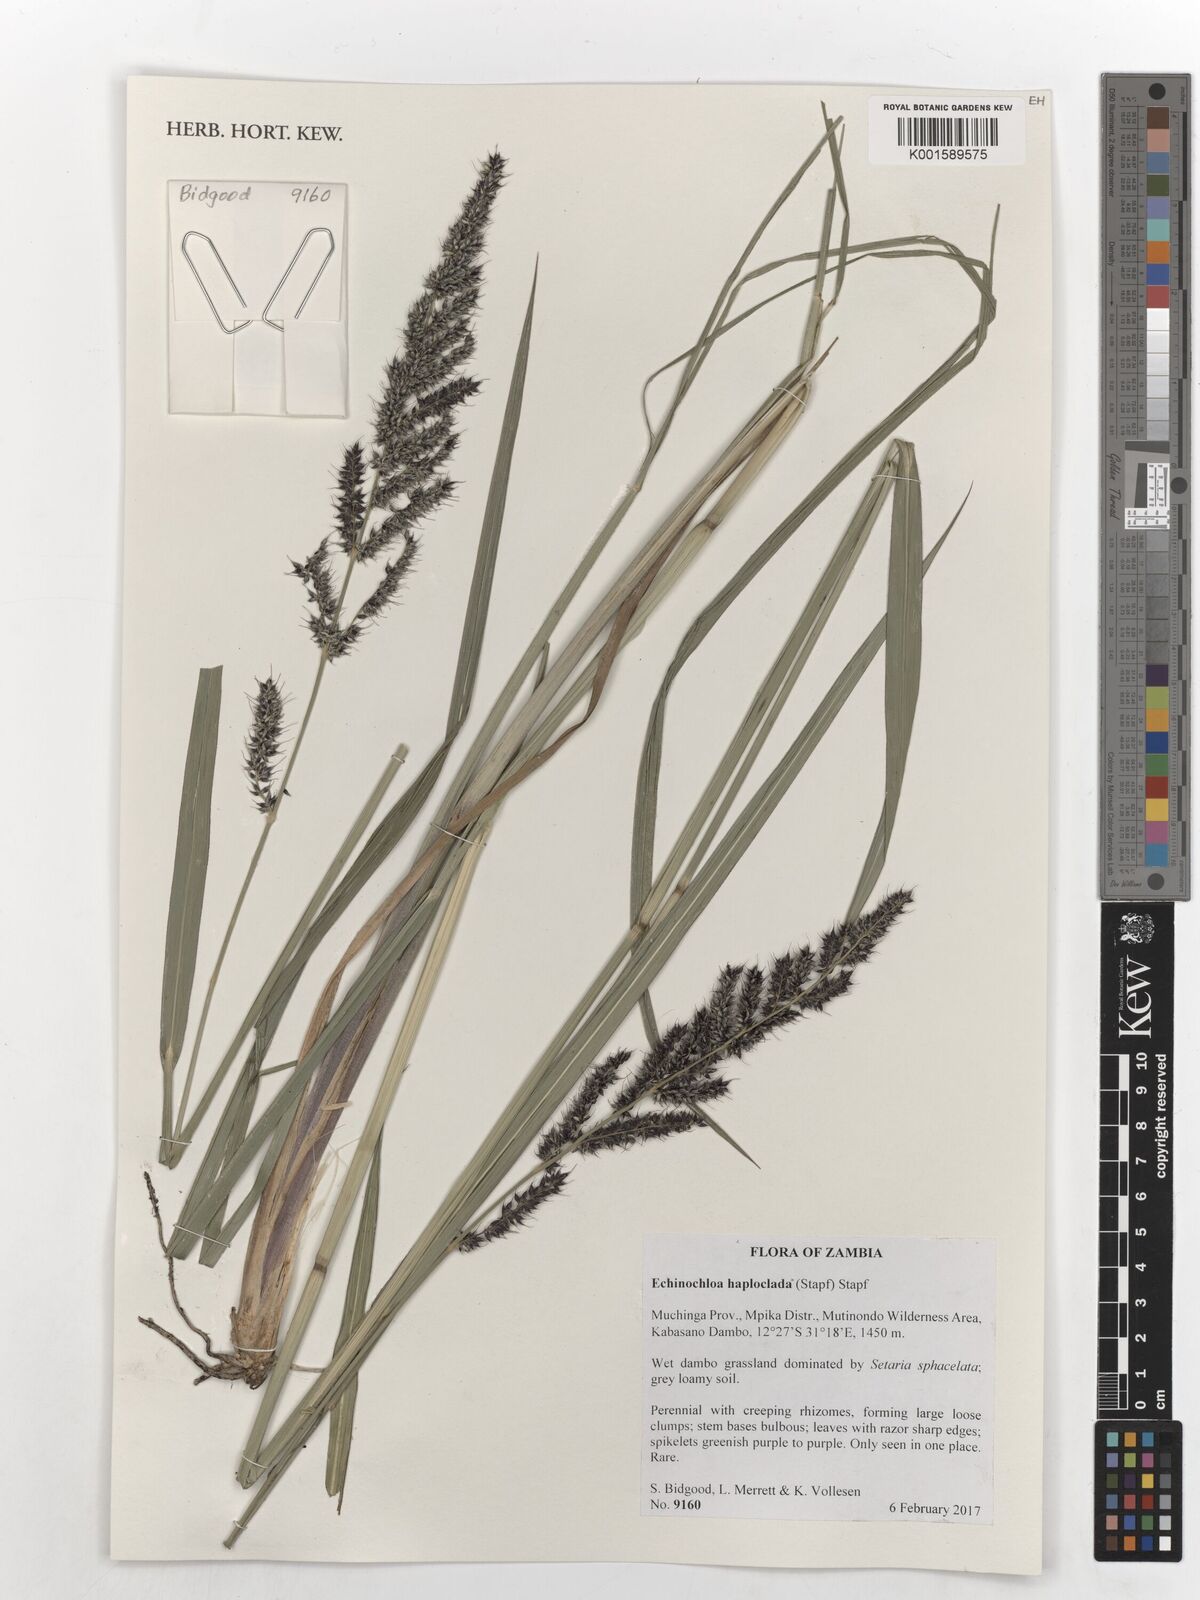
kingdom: Plantae
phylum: Tracheophyta
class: Liliopsida
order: Poales
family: Poaceae
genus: Echinochloa
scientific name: Echinochloa haploclada
